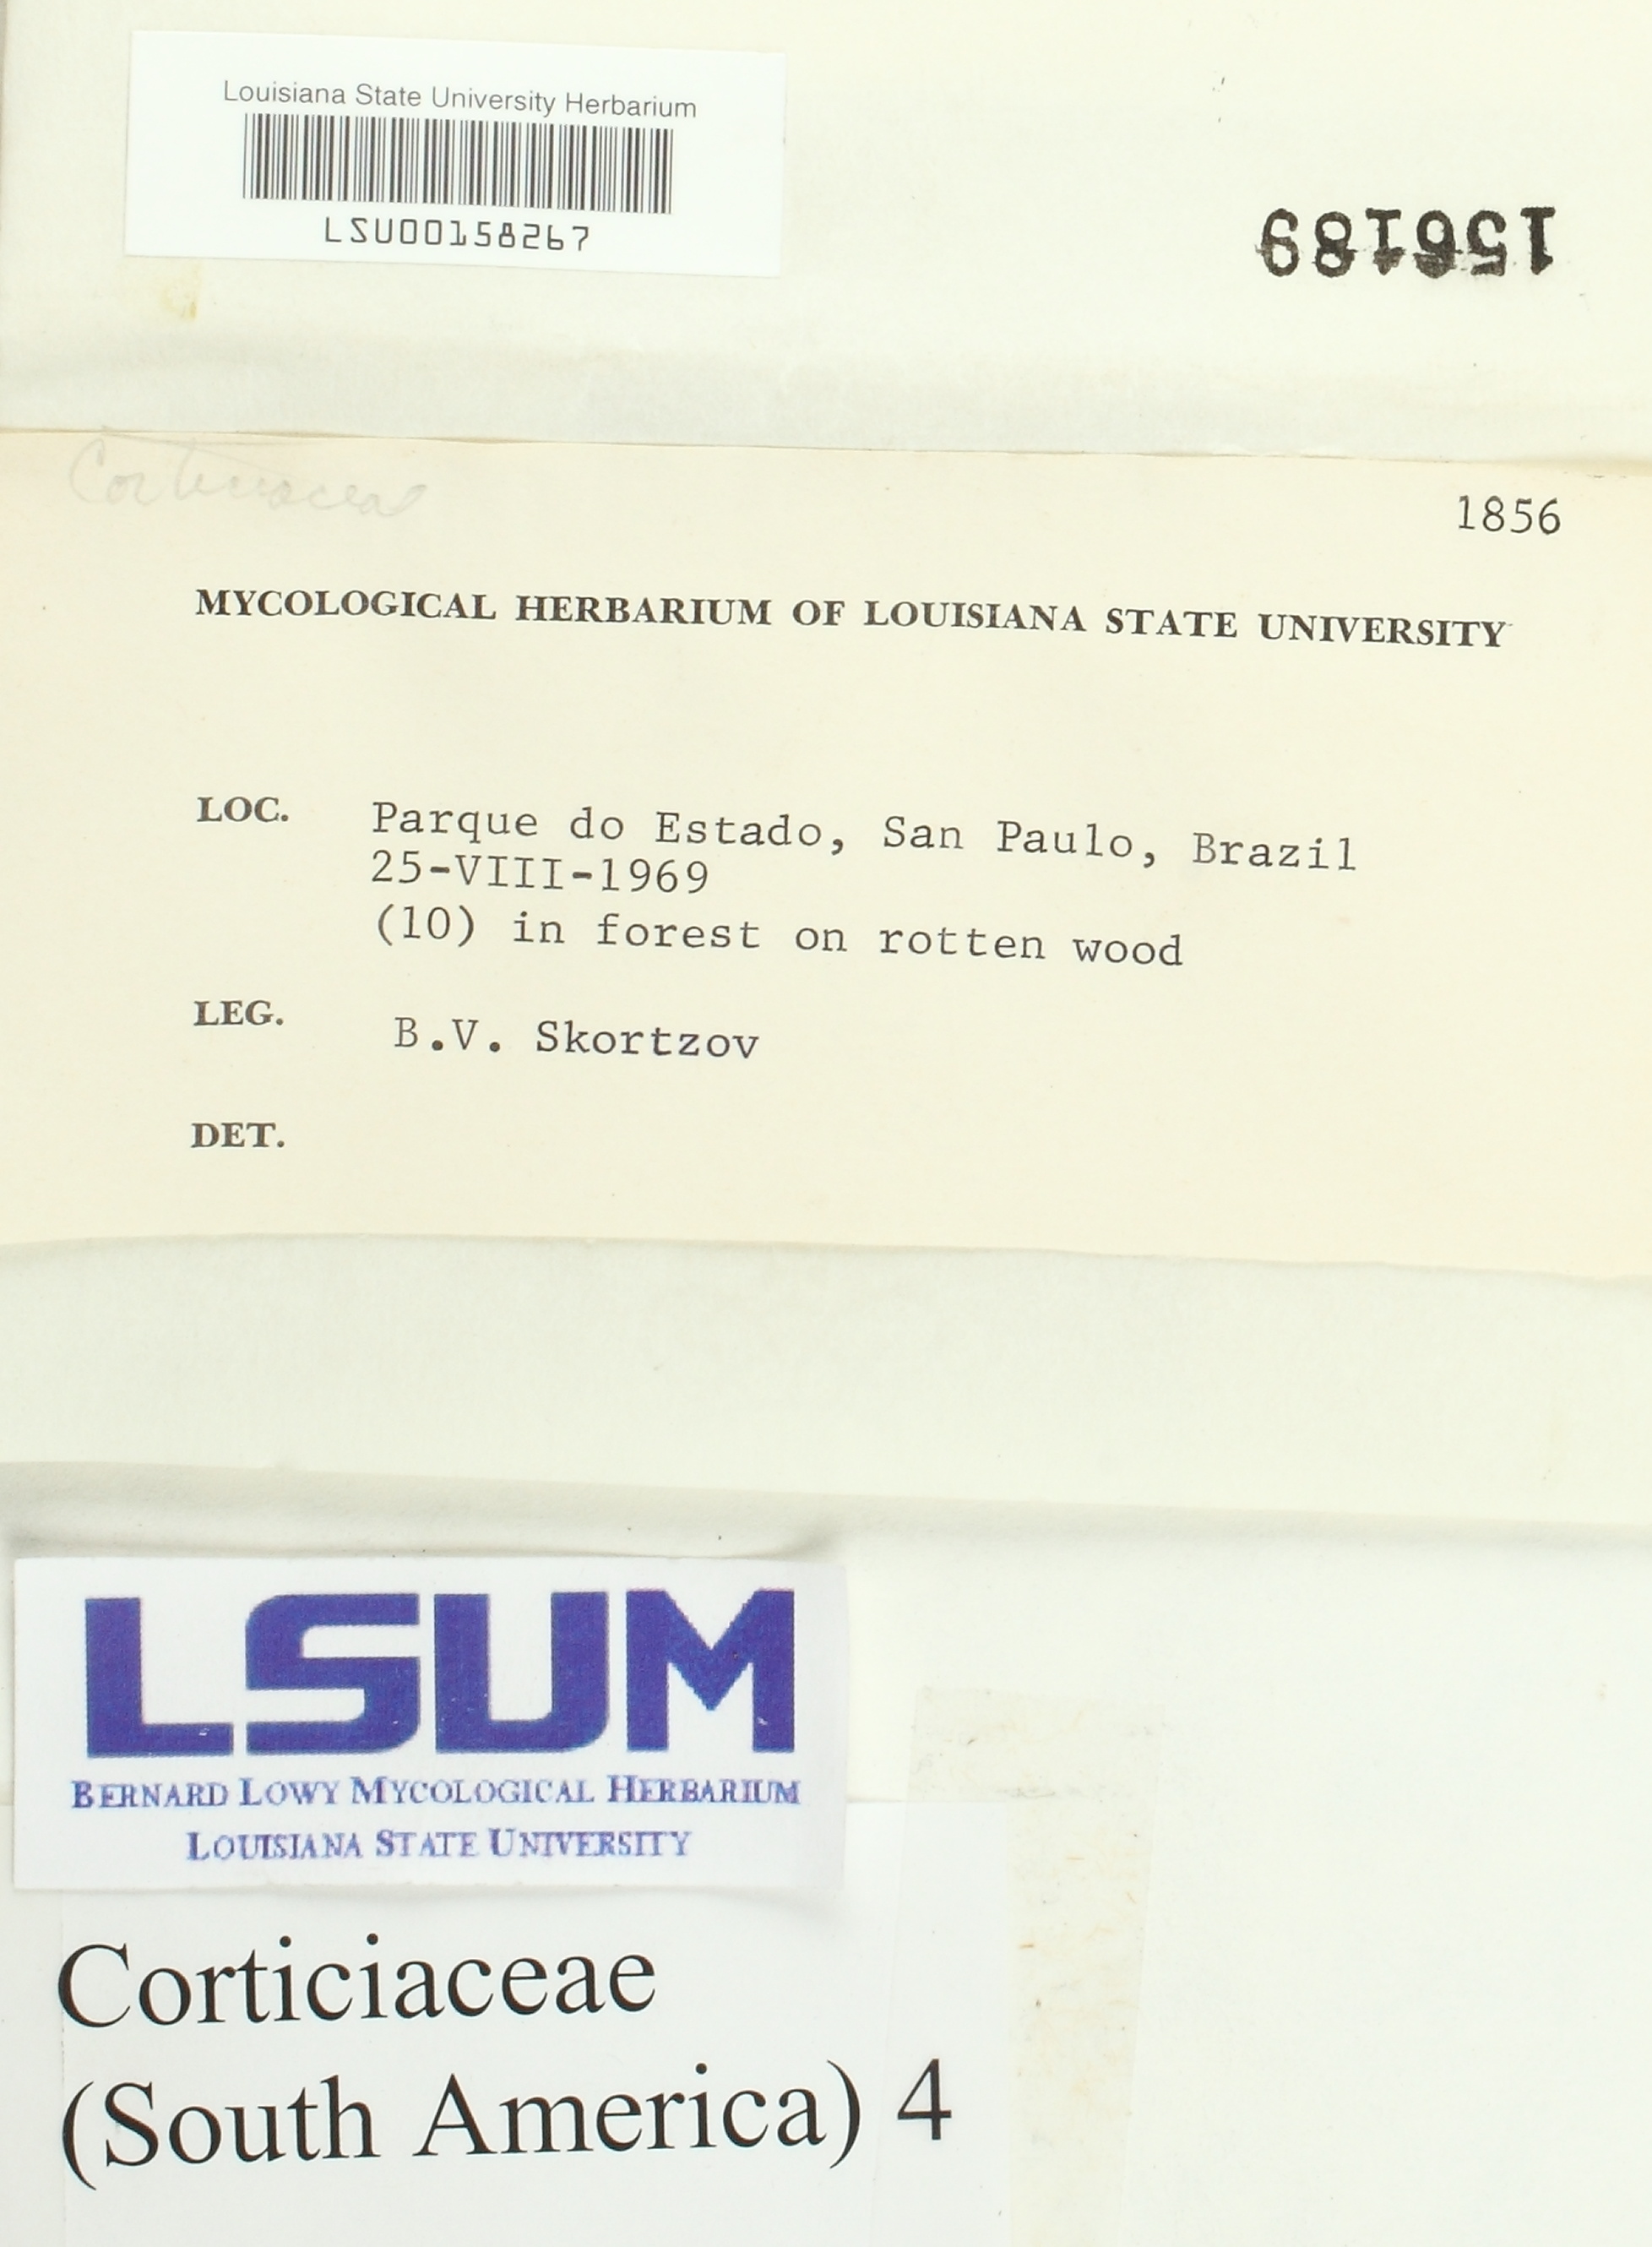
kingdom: Fungi
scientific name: Fungi
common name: Fungi
